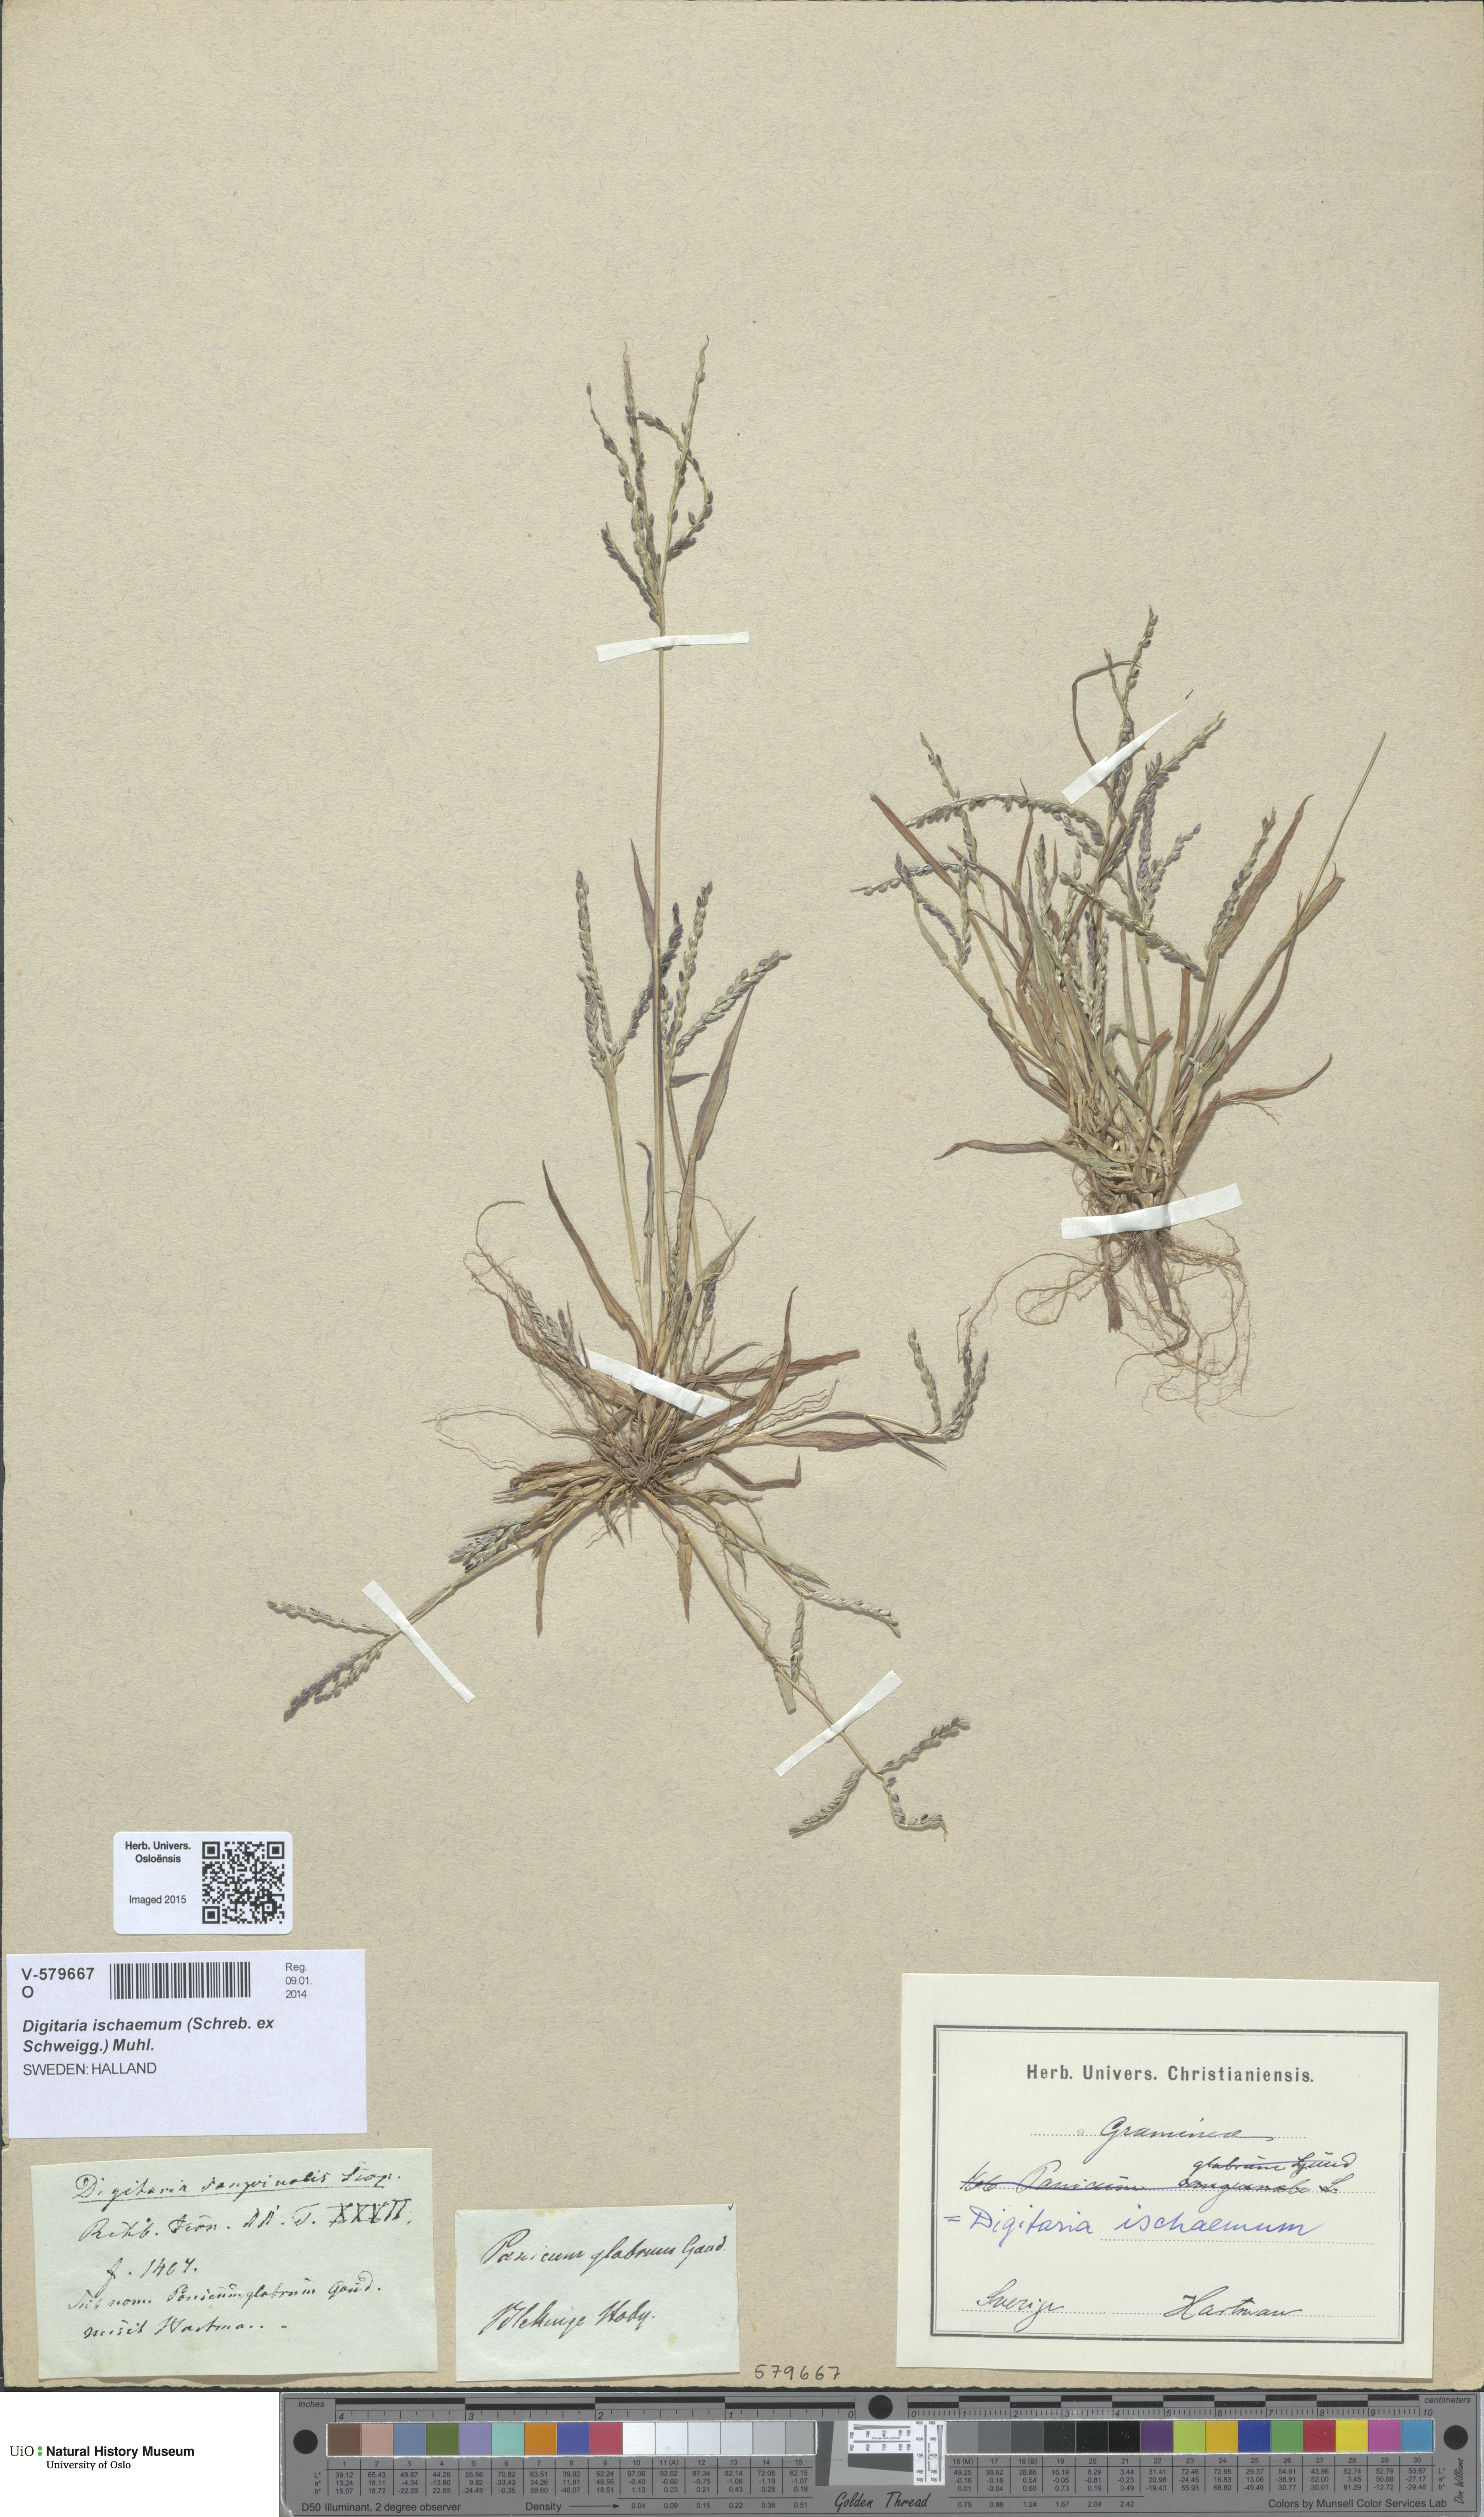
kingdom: Plantae
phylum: Tracheophyta
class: Liliopsida
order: Poales
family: Poaceae
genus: Digitaria
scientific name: Digitaria ischaemum
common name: Smooth crabgrass
